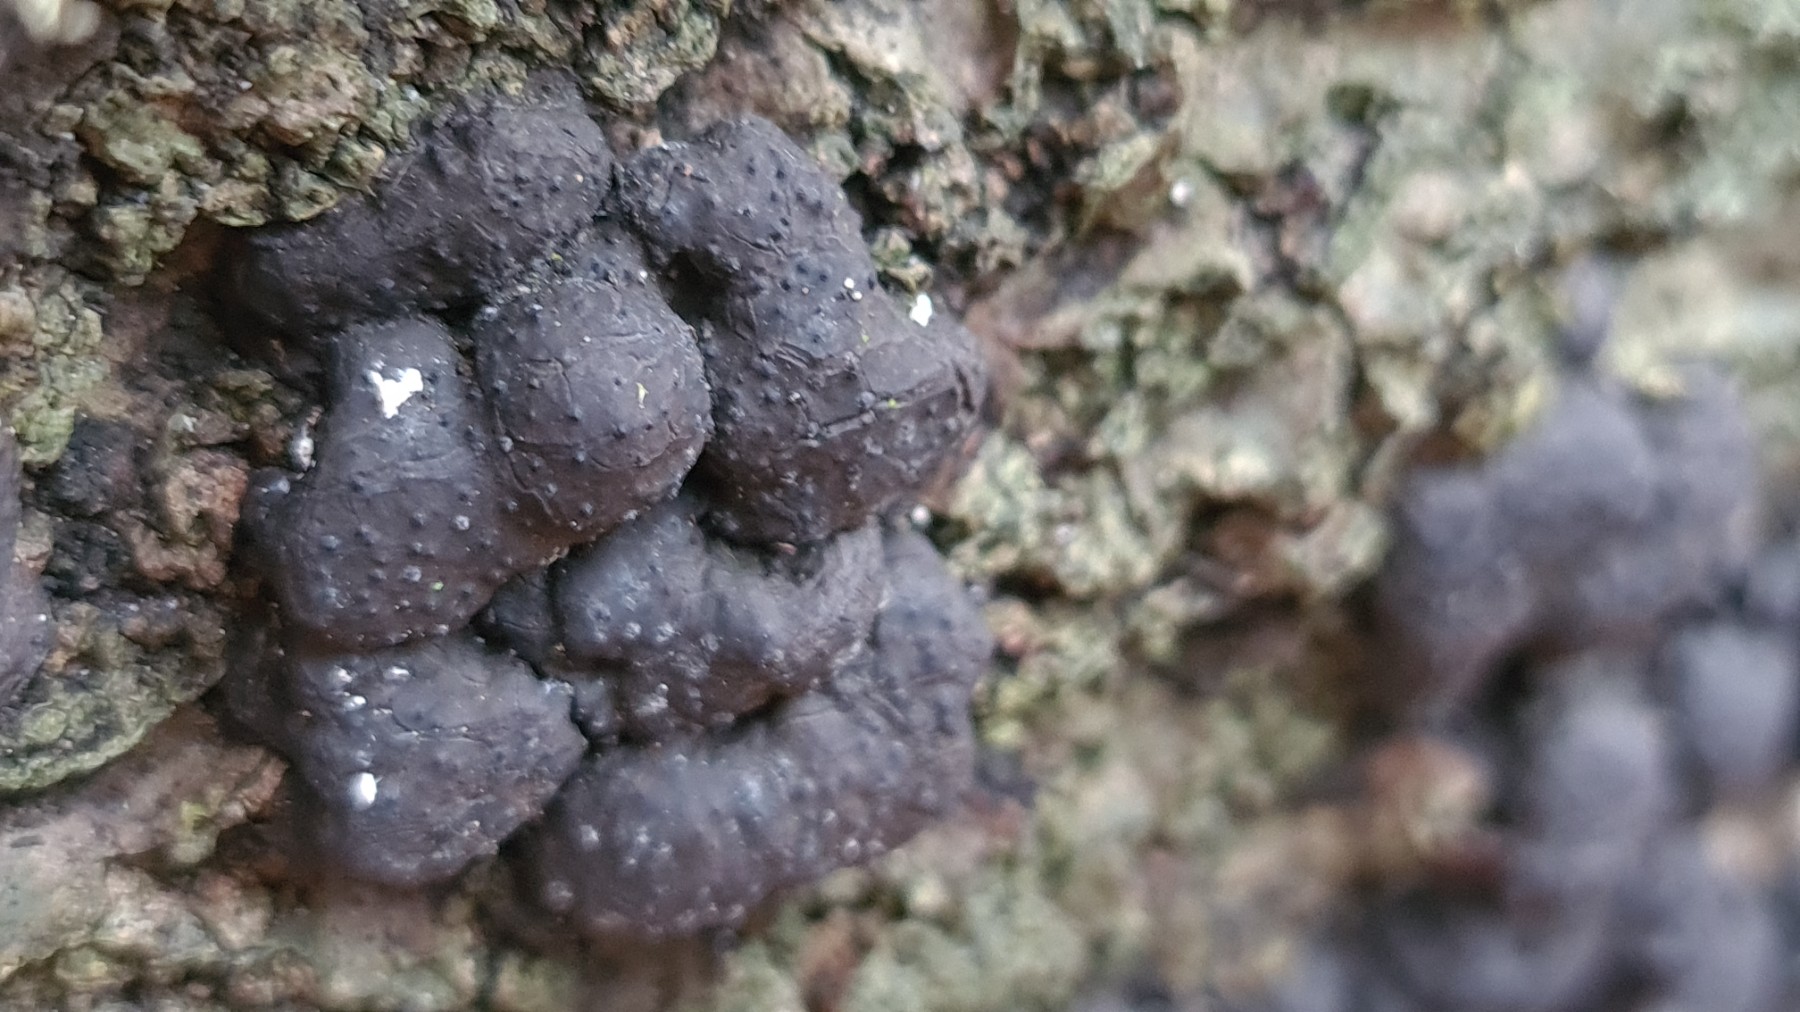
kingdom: Fungi
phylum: Ascomycota
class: Sordariomycetes
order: Xylariales
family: Hypoxylaceae
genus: Jackrogersella
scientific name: Jackrogersella
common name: kulbær
